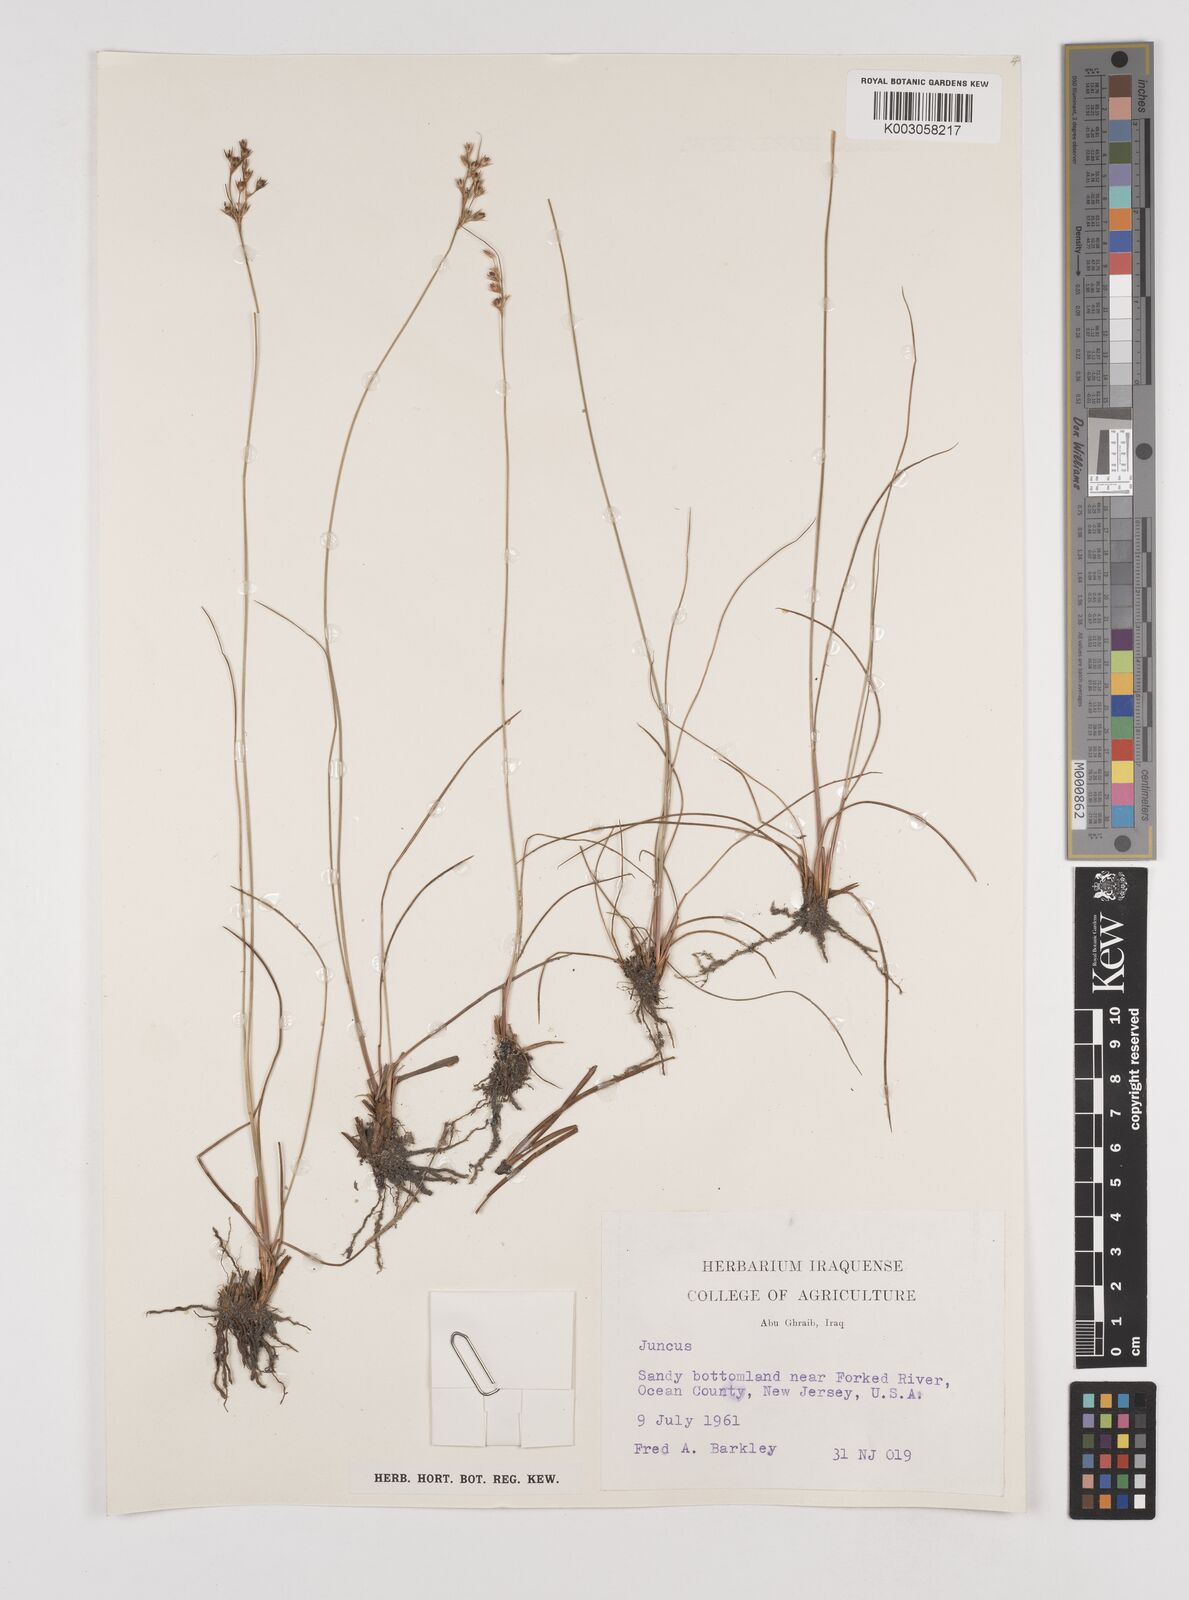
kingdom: Plantae
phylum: Tracheophyta
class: Liliopsida
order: Poales
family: Juncaceae
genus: Juncus
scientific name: Juncus
